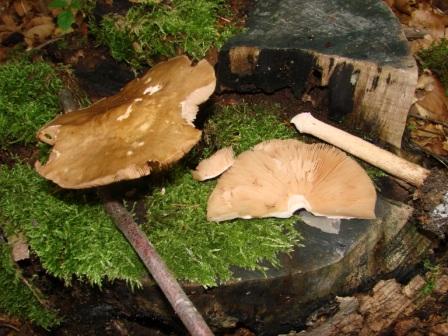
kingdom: Fungi
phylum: Basidiomycota
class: Agaricomycetes
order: Agaricales
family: Pluteaceae
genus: Pluteus
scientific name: Pluteus cervinus
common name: sodfarvet skærmhat
